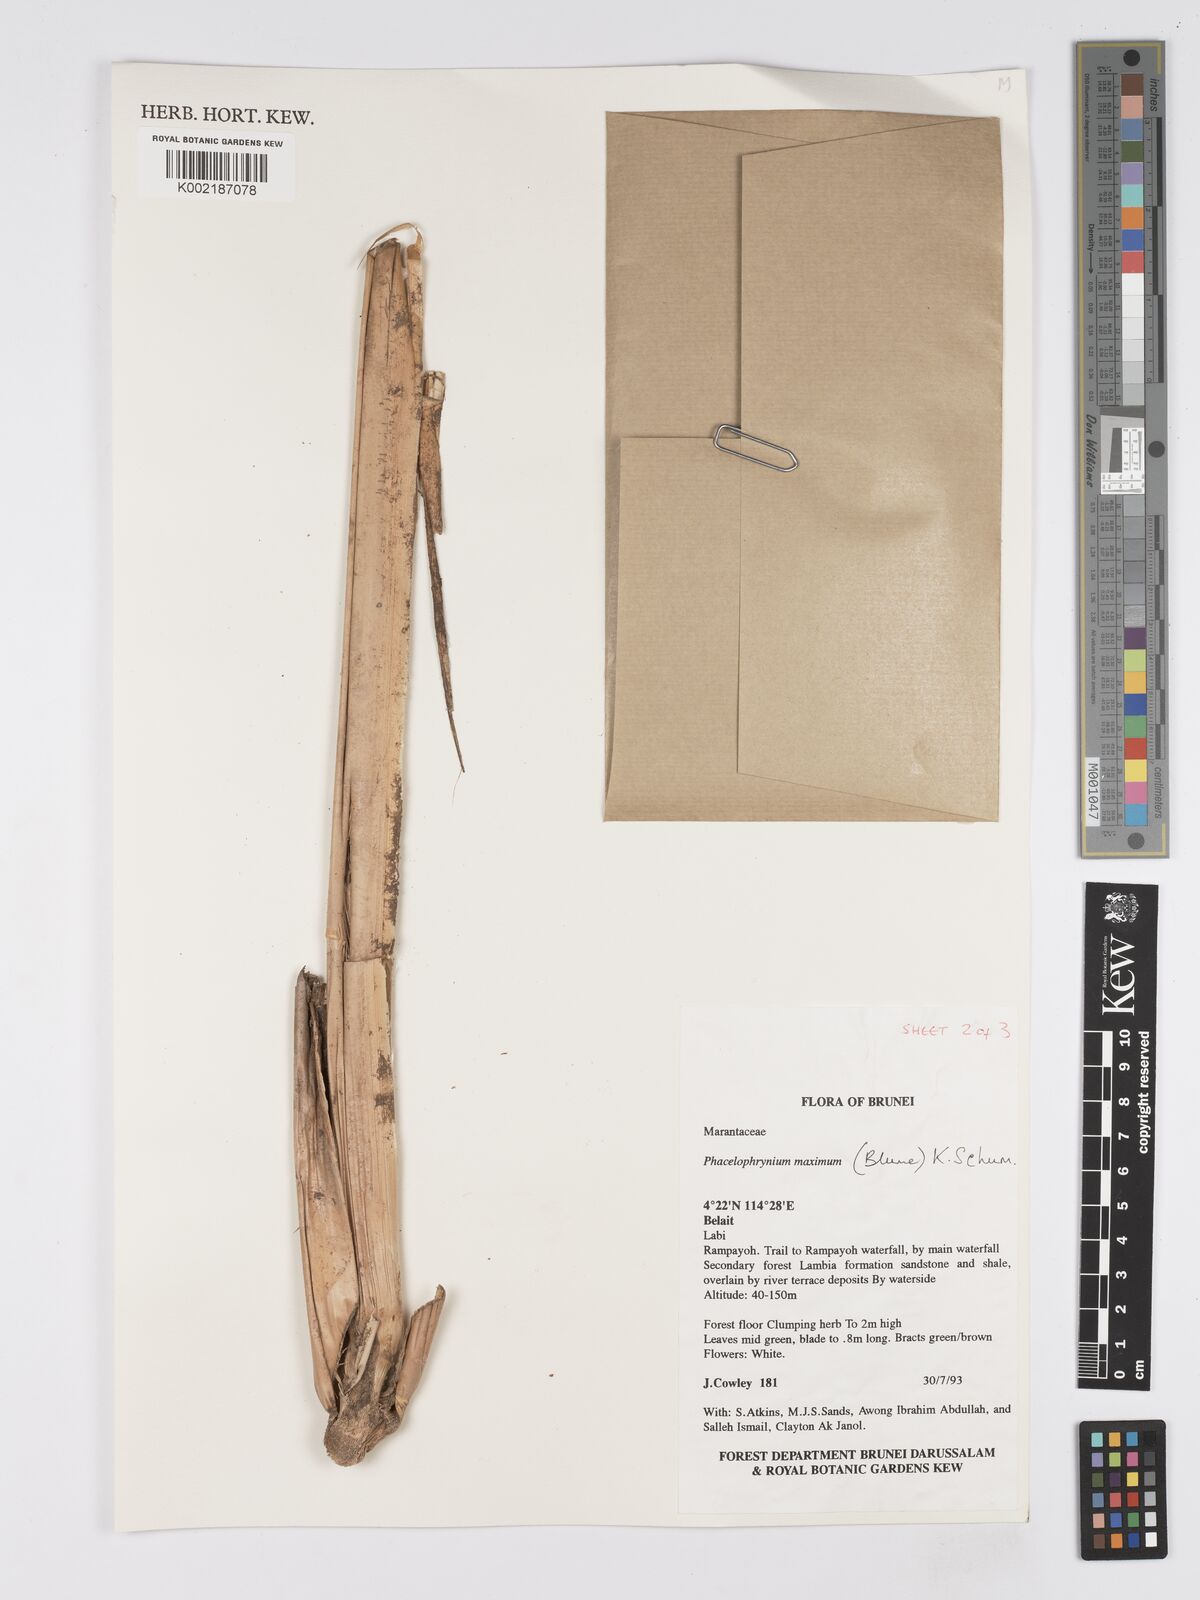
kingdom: Plantae
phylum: Tracheophyta
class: Liliopsida
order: Zingiberales
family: Marantaceae
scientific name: Marantaceae
